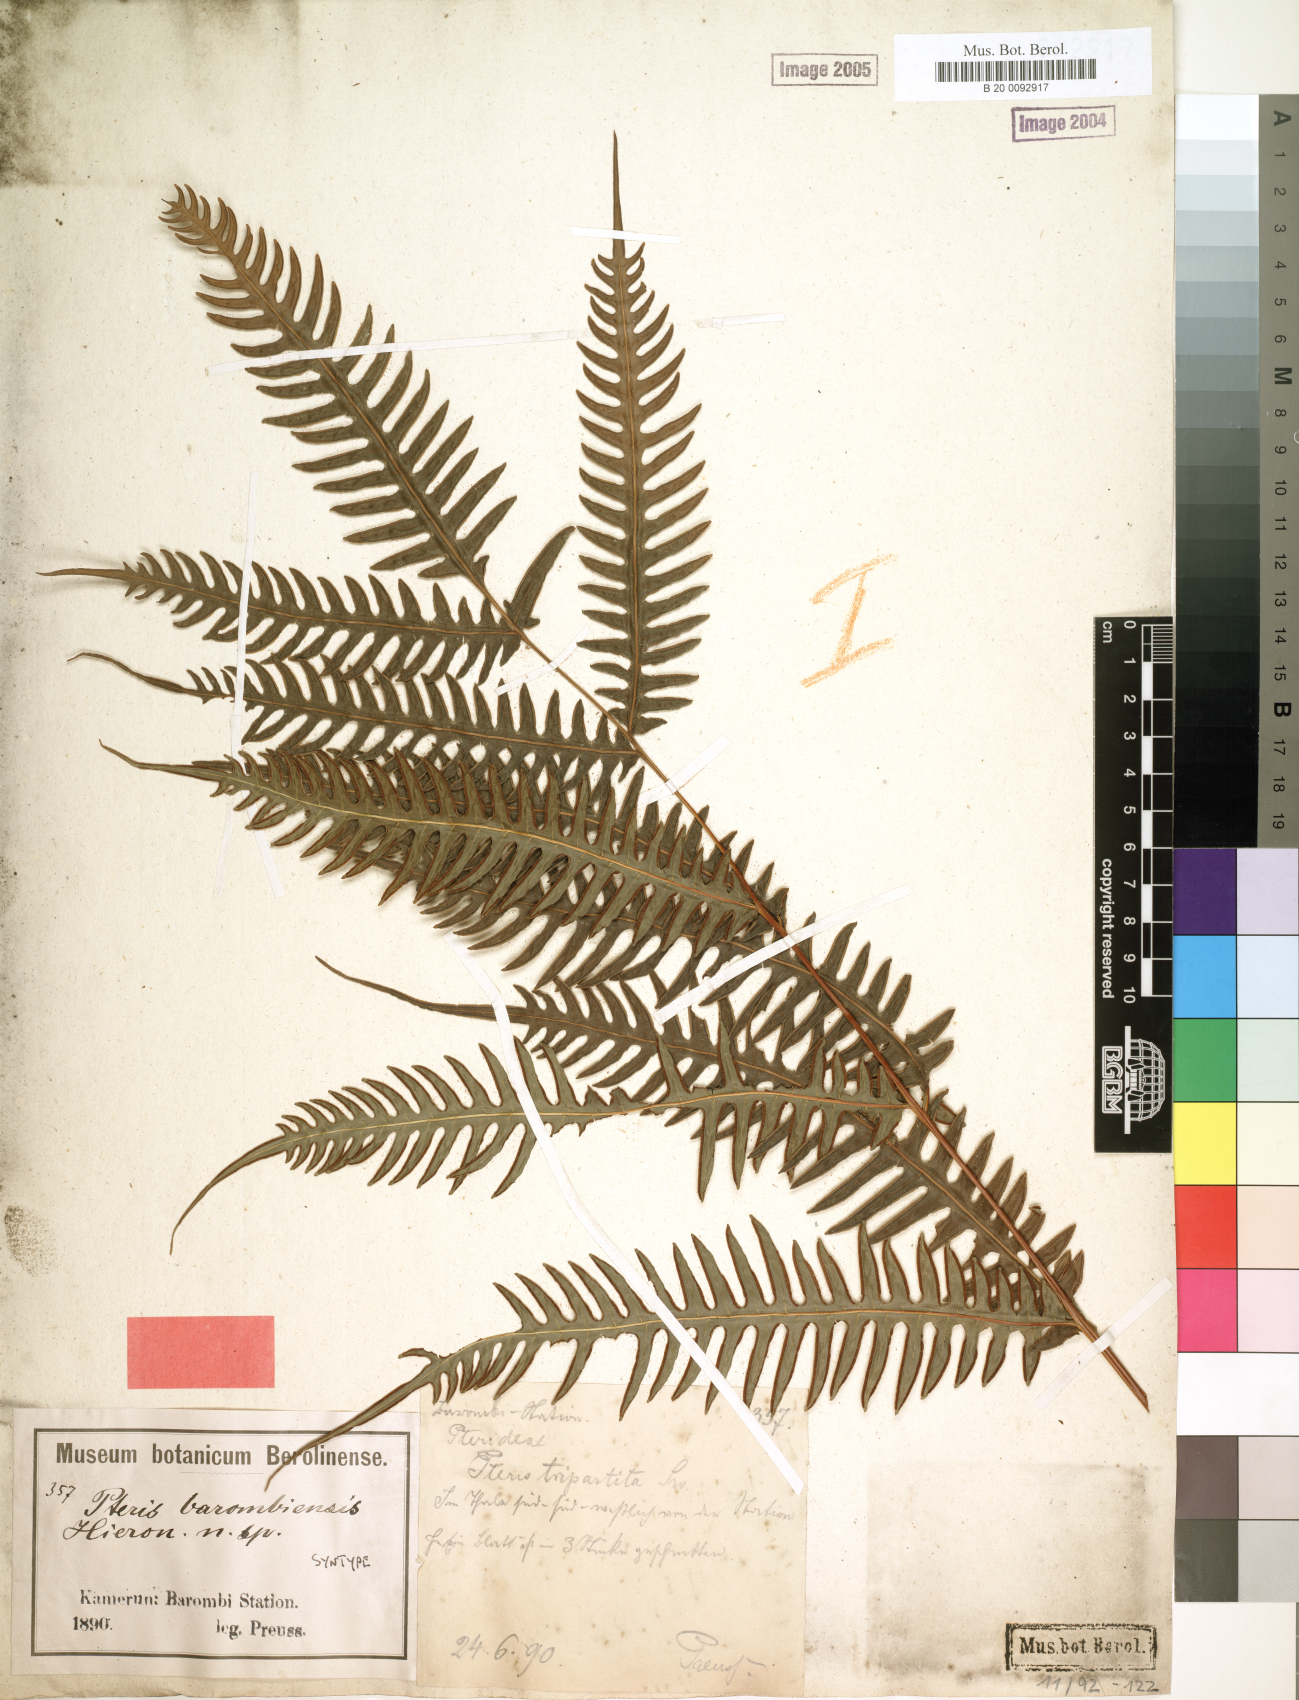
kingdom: Plantae
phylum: Tracheophyta
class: Polypodiopsida
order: Polypodiales
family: Pteridaceae
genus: Pteris
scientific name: Pteris barombiensis
